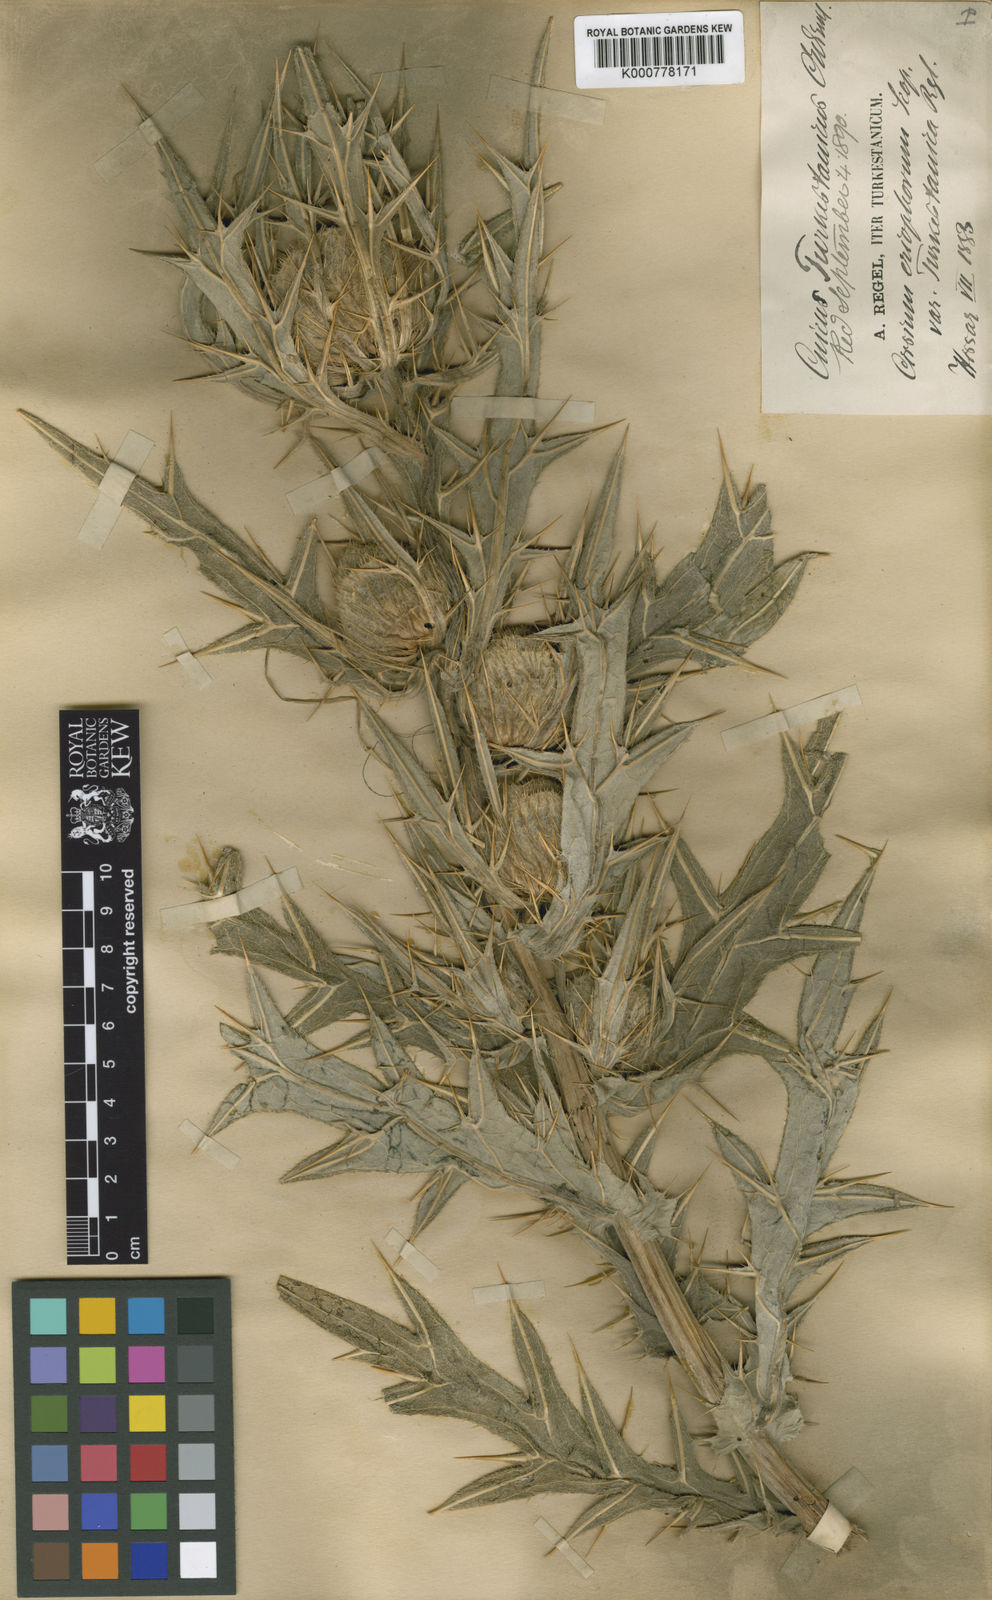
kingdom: Plantae
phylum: Tracheophyta
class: Magnoliopsida
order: Asterales
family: Asteraceae
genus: Lophiolepis
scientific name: Lophiolepis eriophora
